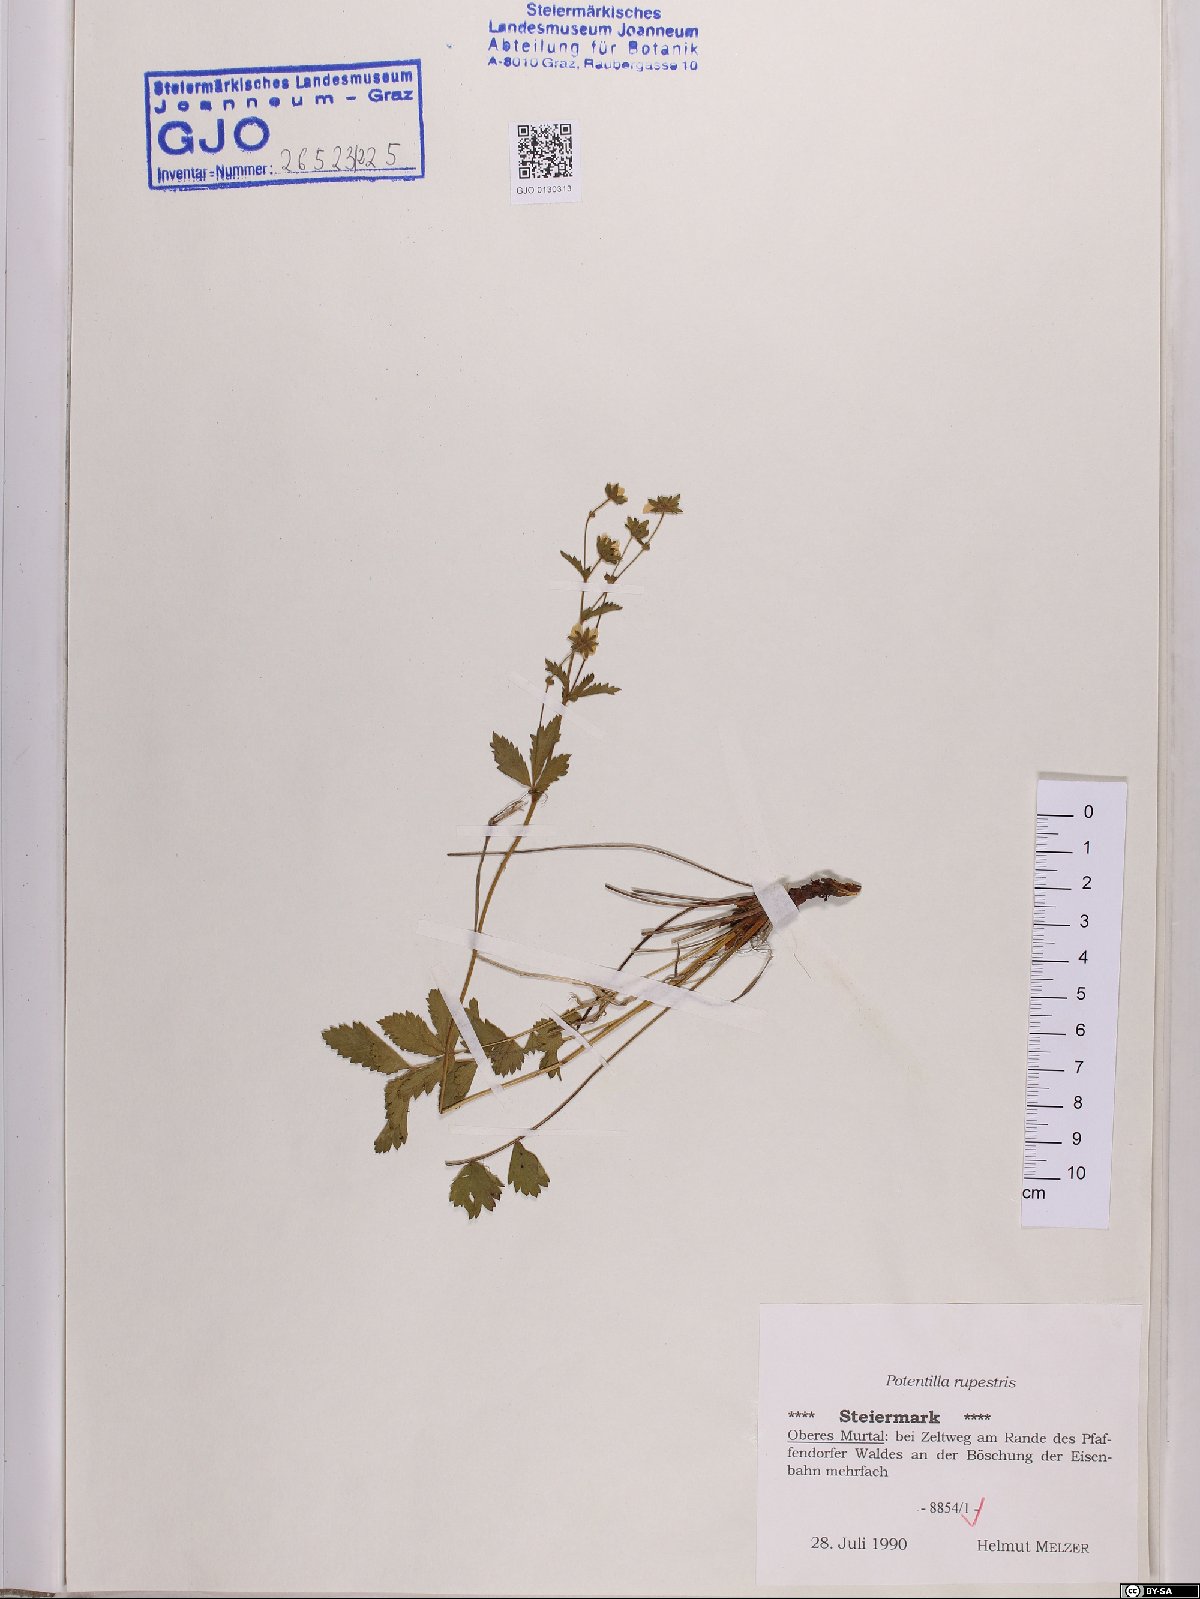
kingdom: Plantae
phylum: Tracheophyta
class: Magnoliopsida
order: Rosales
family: Rosaceae
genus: Drymocallis
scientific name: Drymocallis rupestris
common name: Rock cinquefoil
